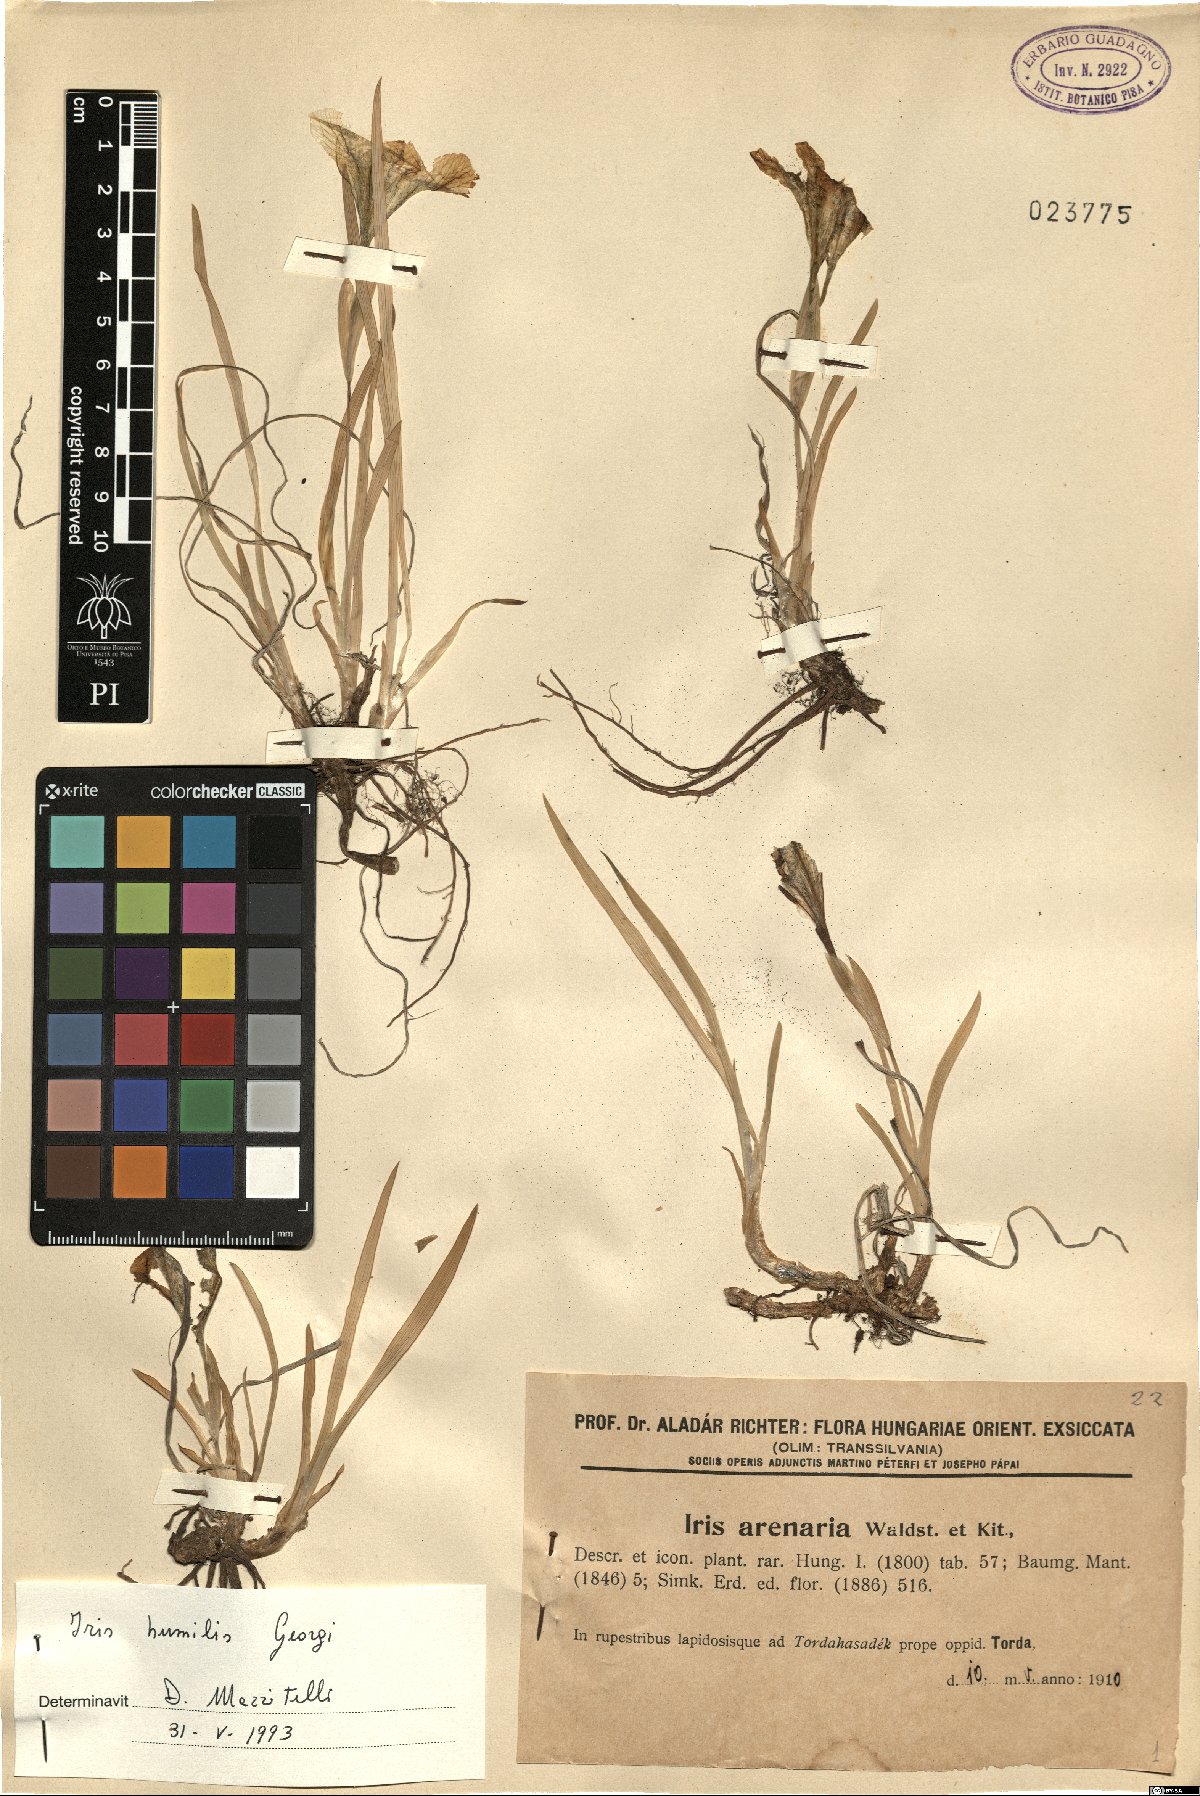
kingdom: Plantae
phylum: Tracheophyta
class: Liliopsida
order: Asparagales
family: Iridaceae
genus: Iris
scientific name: Iris humilis
